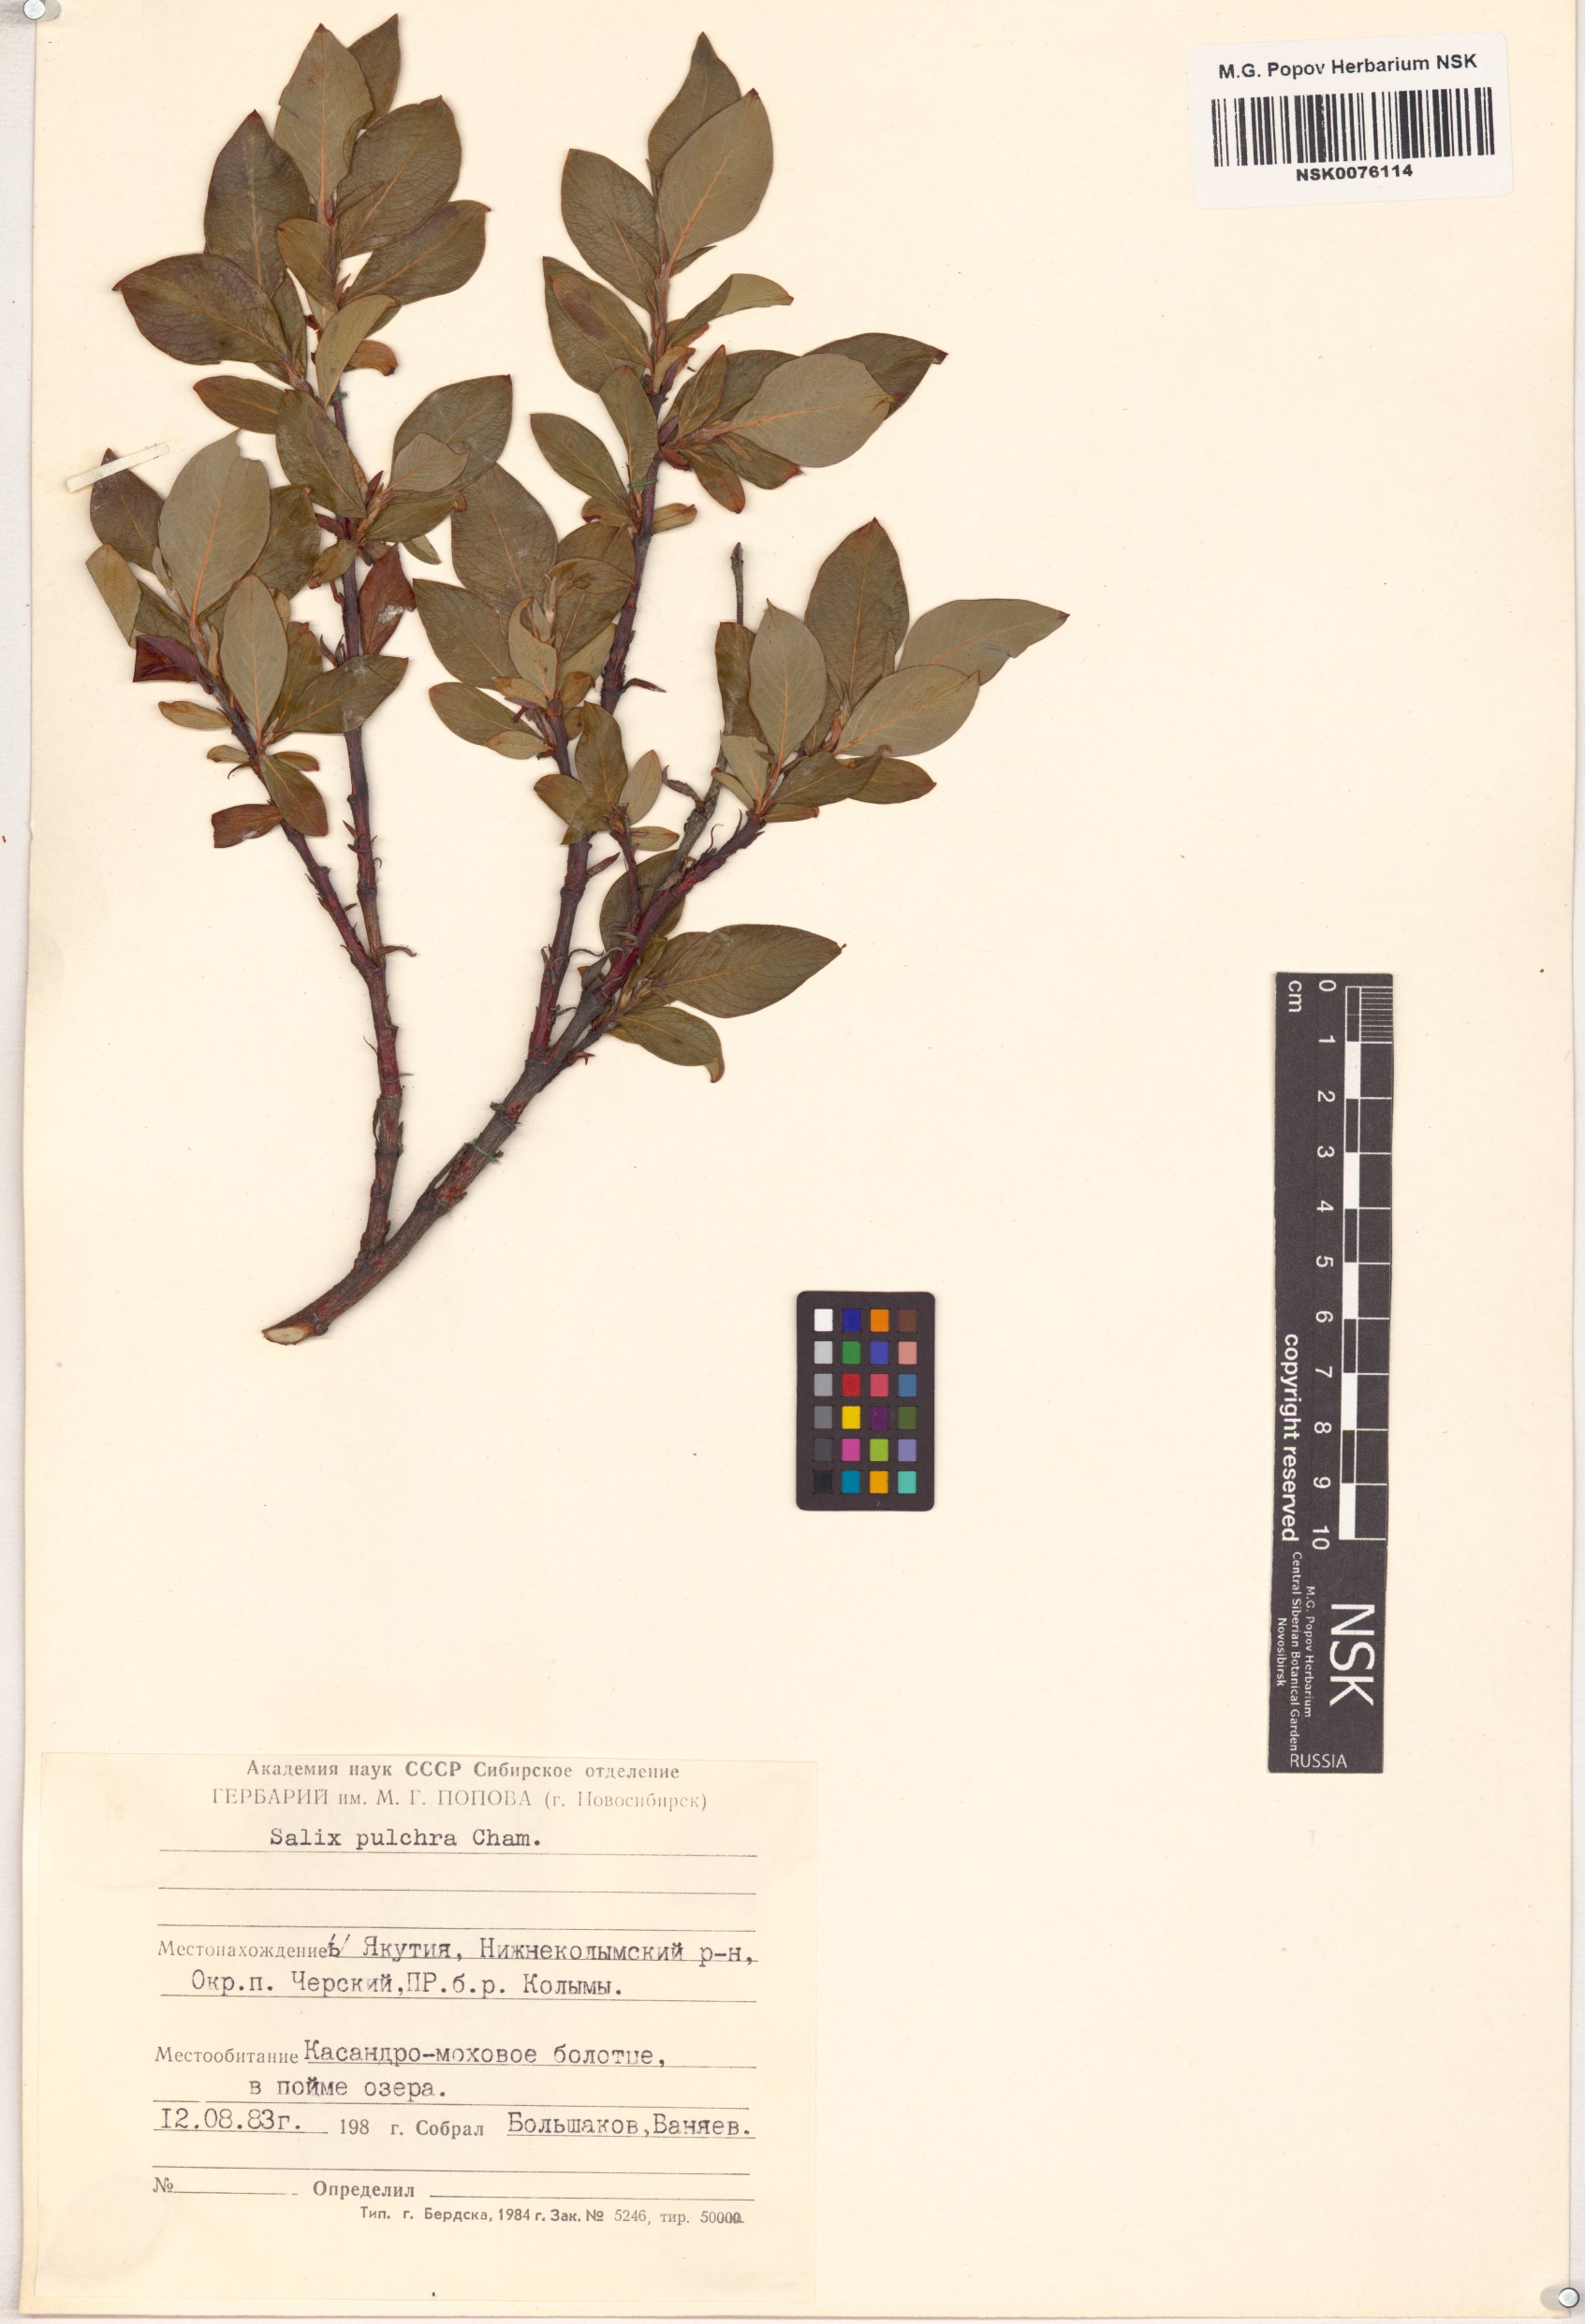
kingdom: Plantae
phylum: Tracheophyta
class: Magnoliopsida
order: Malpighiales
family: Salicaceae
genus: Salix
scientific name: Salix pulchra
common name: Diamond-leaved willow
